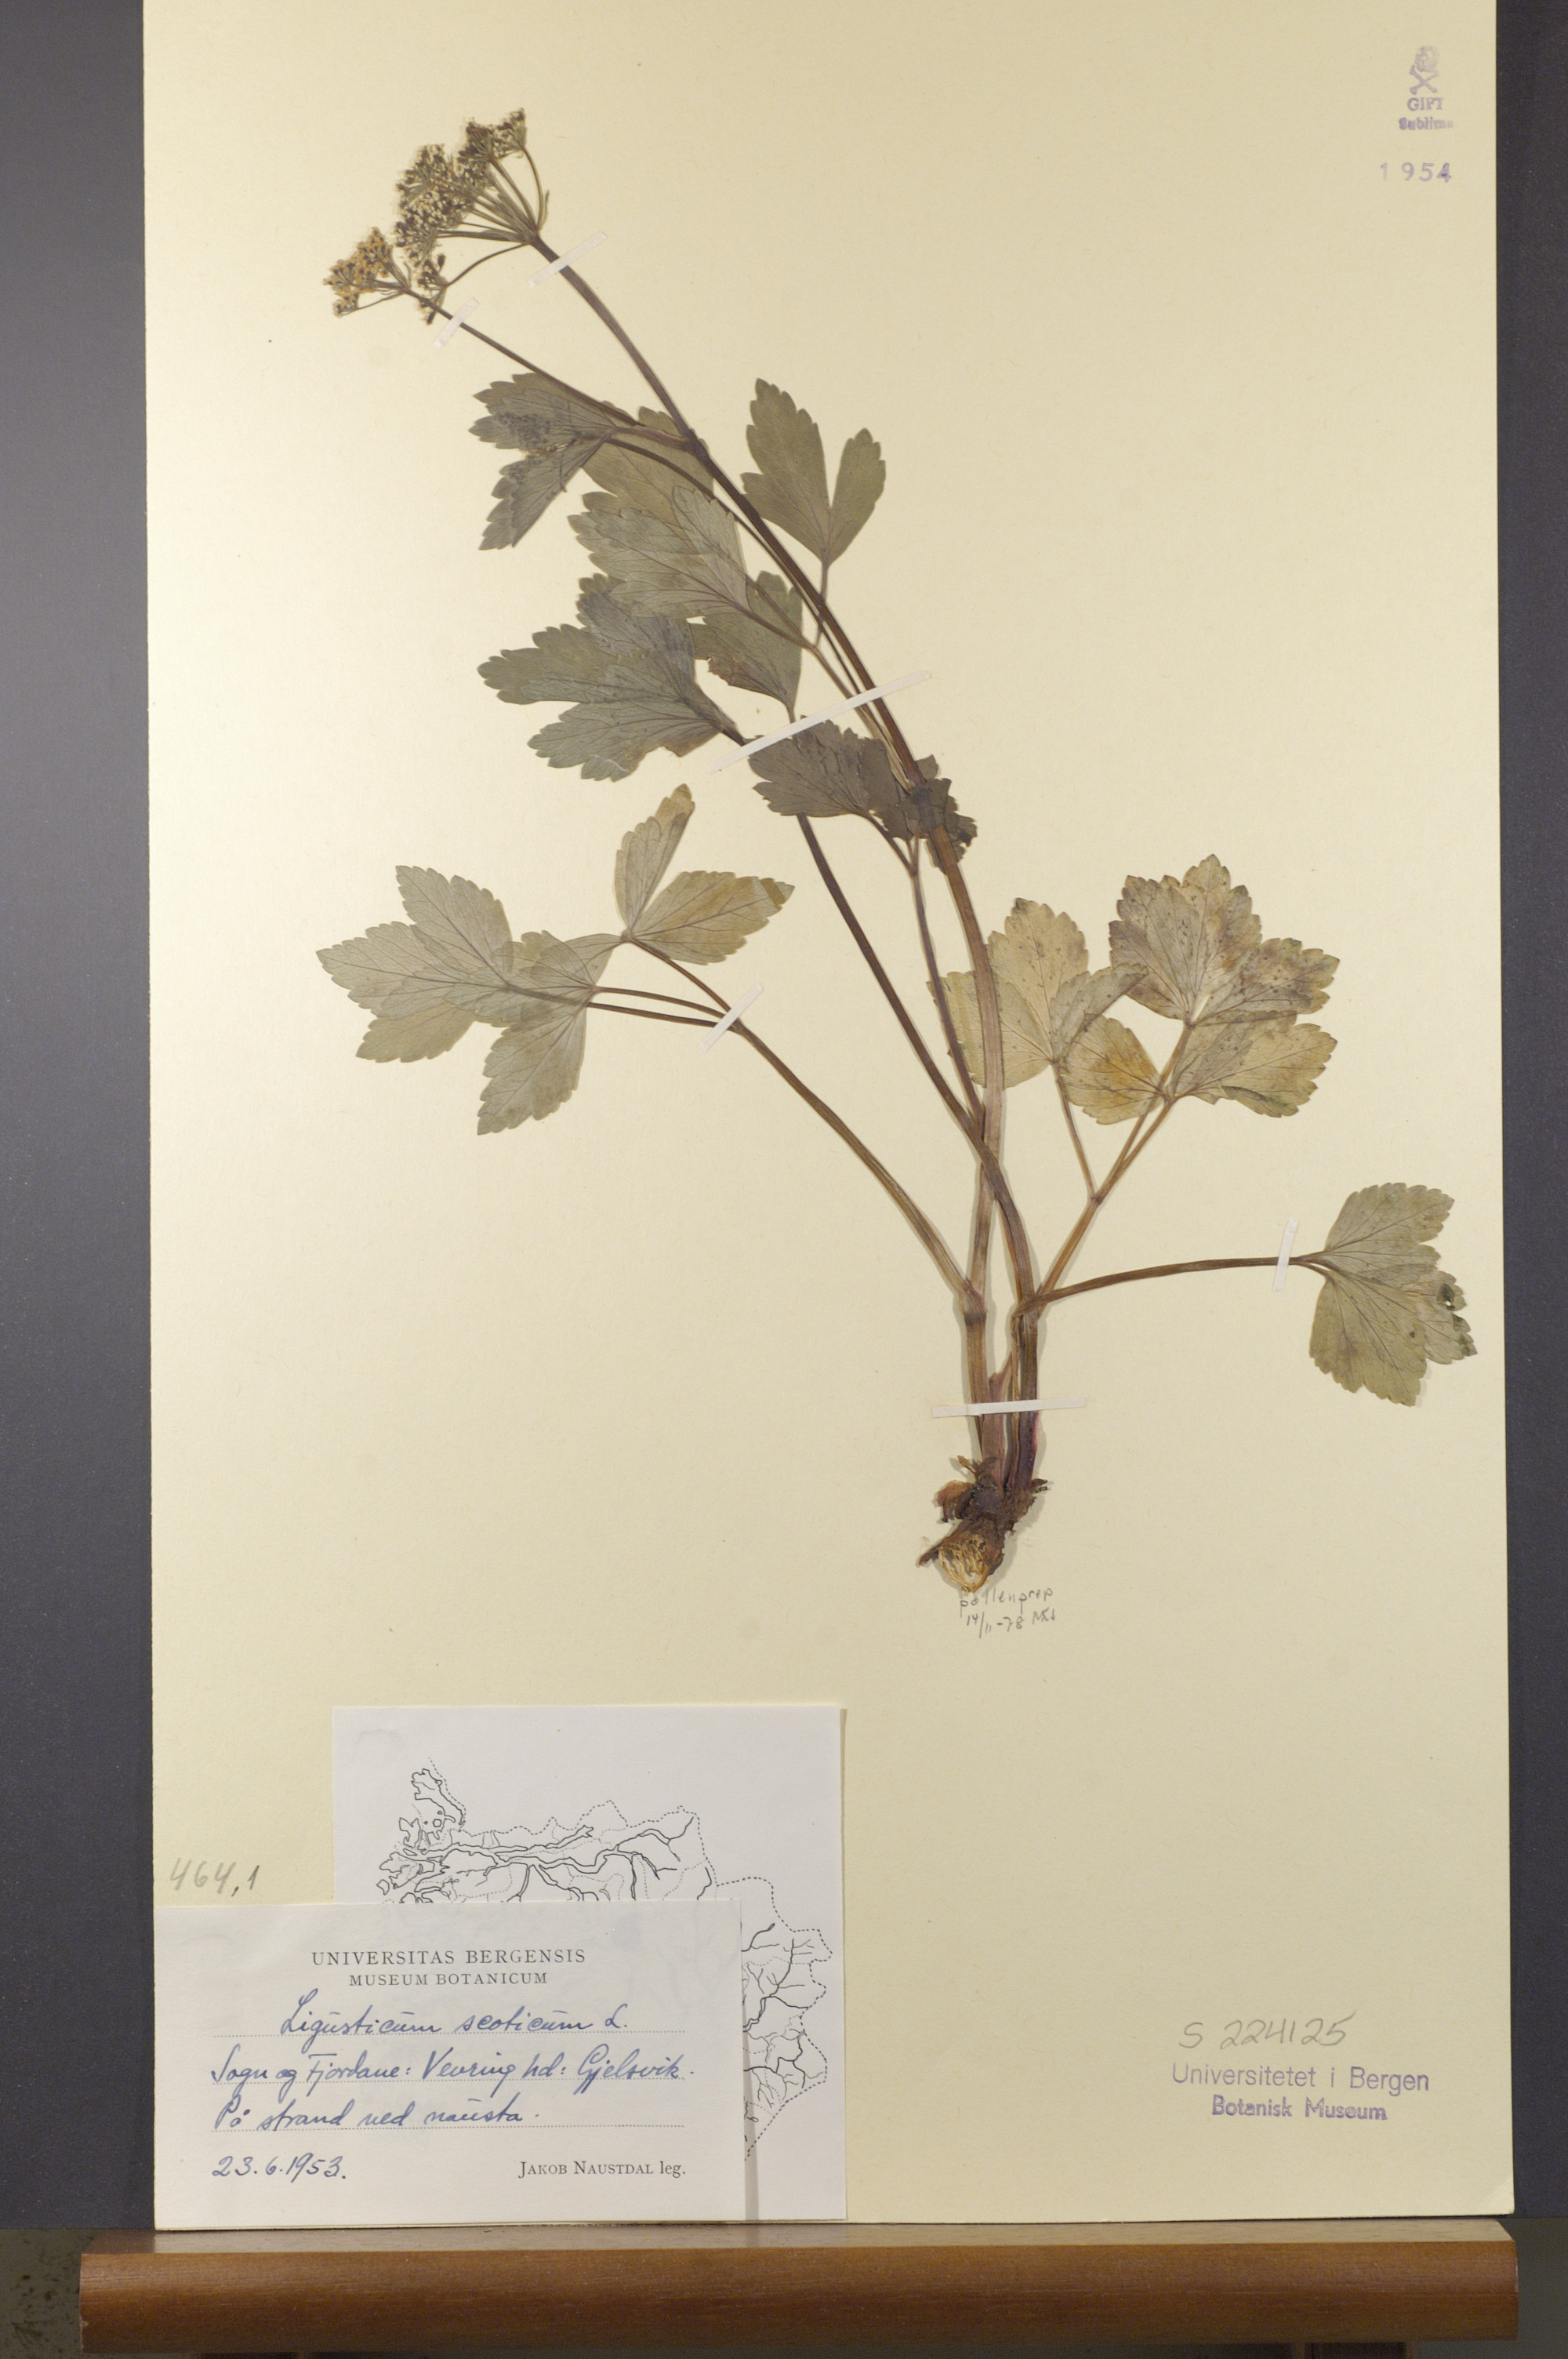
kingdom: Plantae
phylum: Tracheophyta
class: Magnoliopsida
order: Apiales
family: Apiaceae
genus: Ligusticum
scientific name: Ligusticum scothicum
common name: Beach lovage
